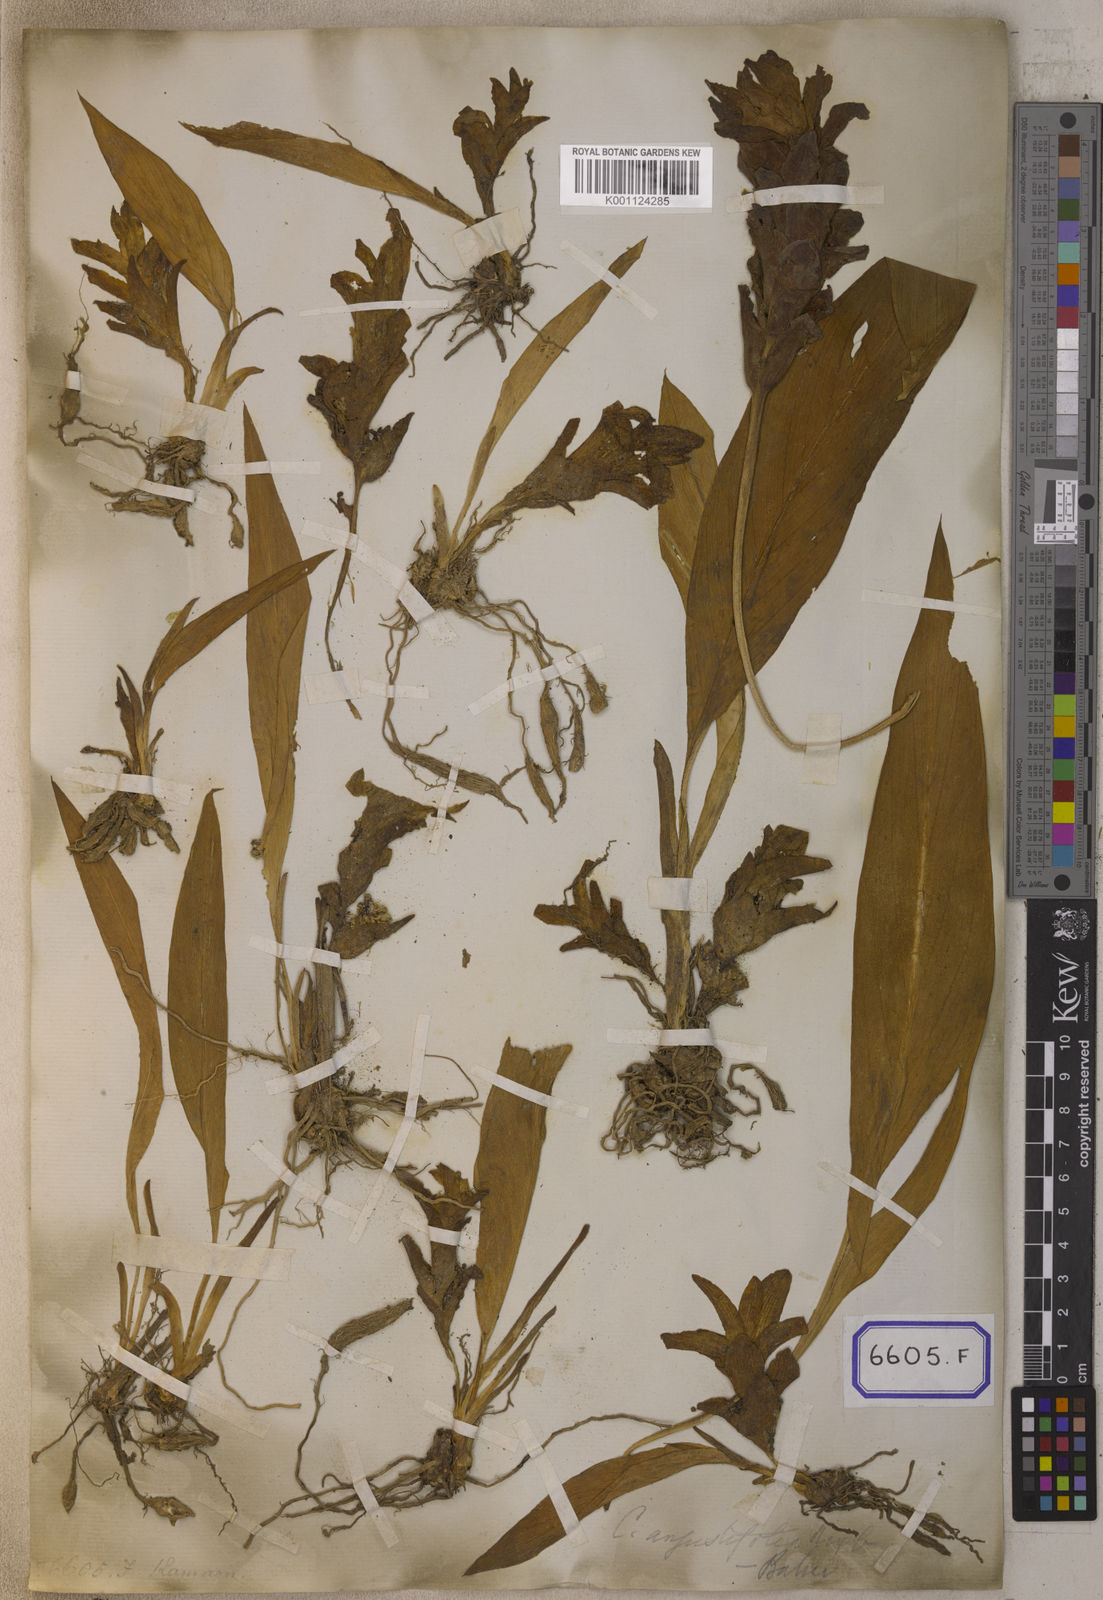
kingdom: Plantae
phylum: Tracheophyta
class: Liliopsida
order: Zingiberales
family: Zingiberaceae
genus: Curcuma
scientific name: Curcuma longa
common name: Turmeric
